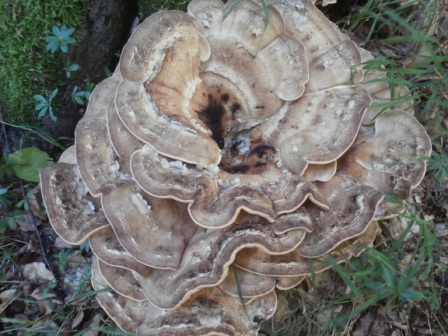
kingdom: Fungi
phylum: Basidiomycota
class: Agaricomycetes
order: Polyporales
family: Meripilaceae
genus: Meripilus
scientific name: Meripilus giganteus
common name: kæmpeporesvamp
